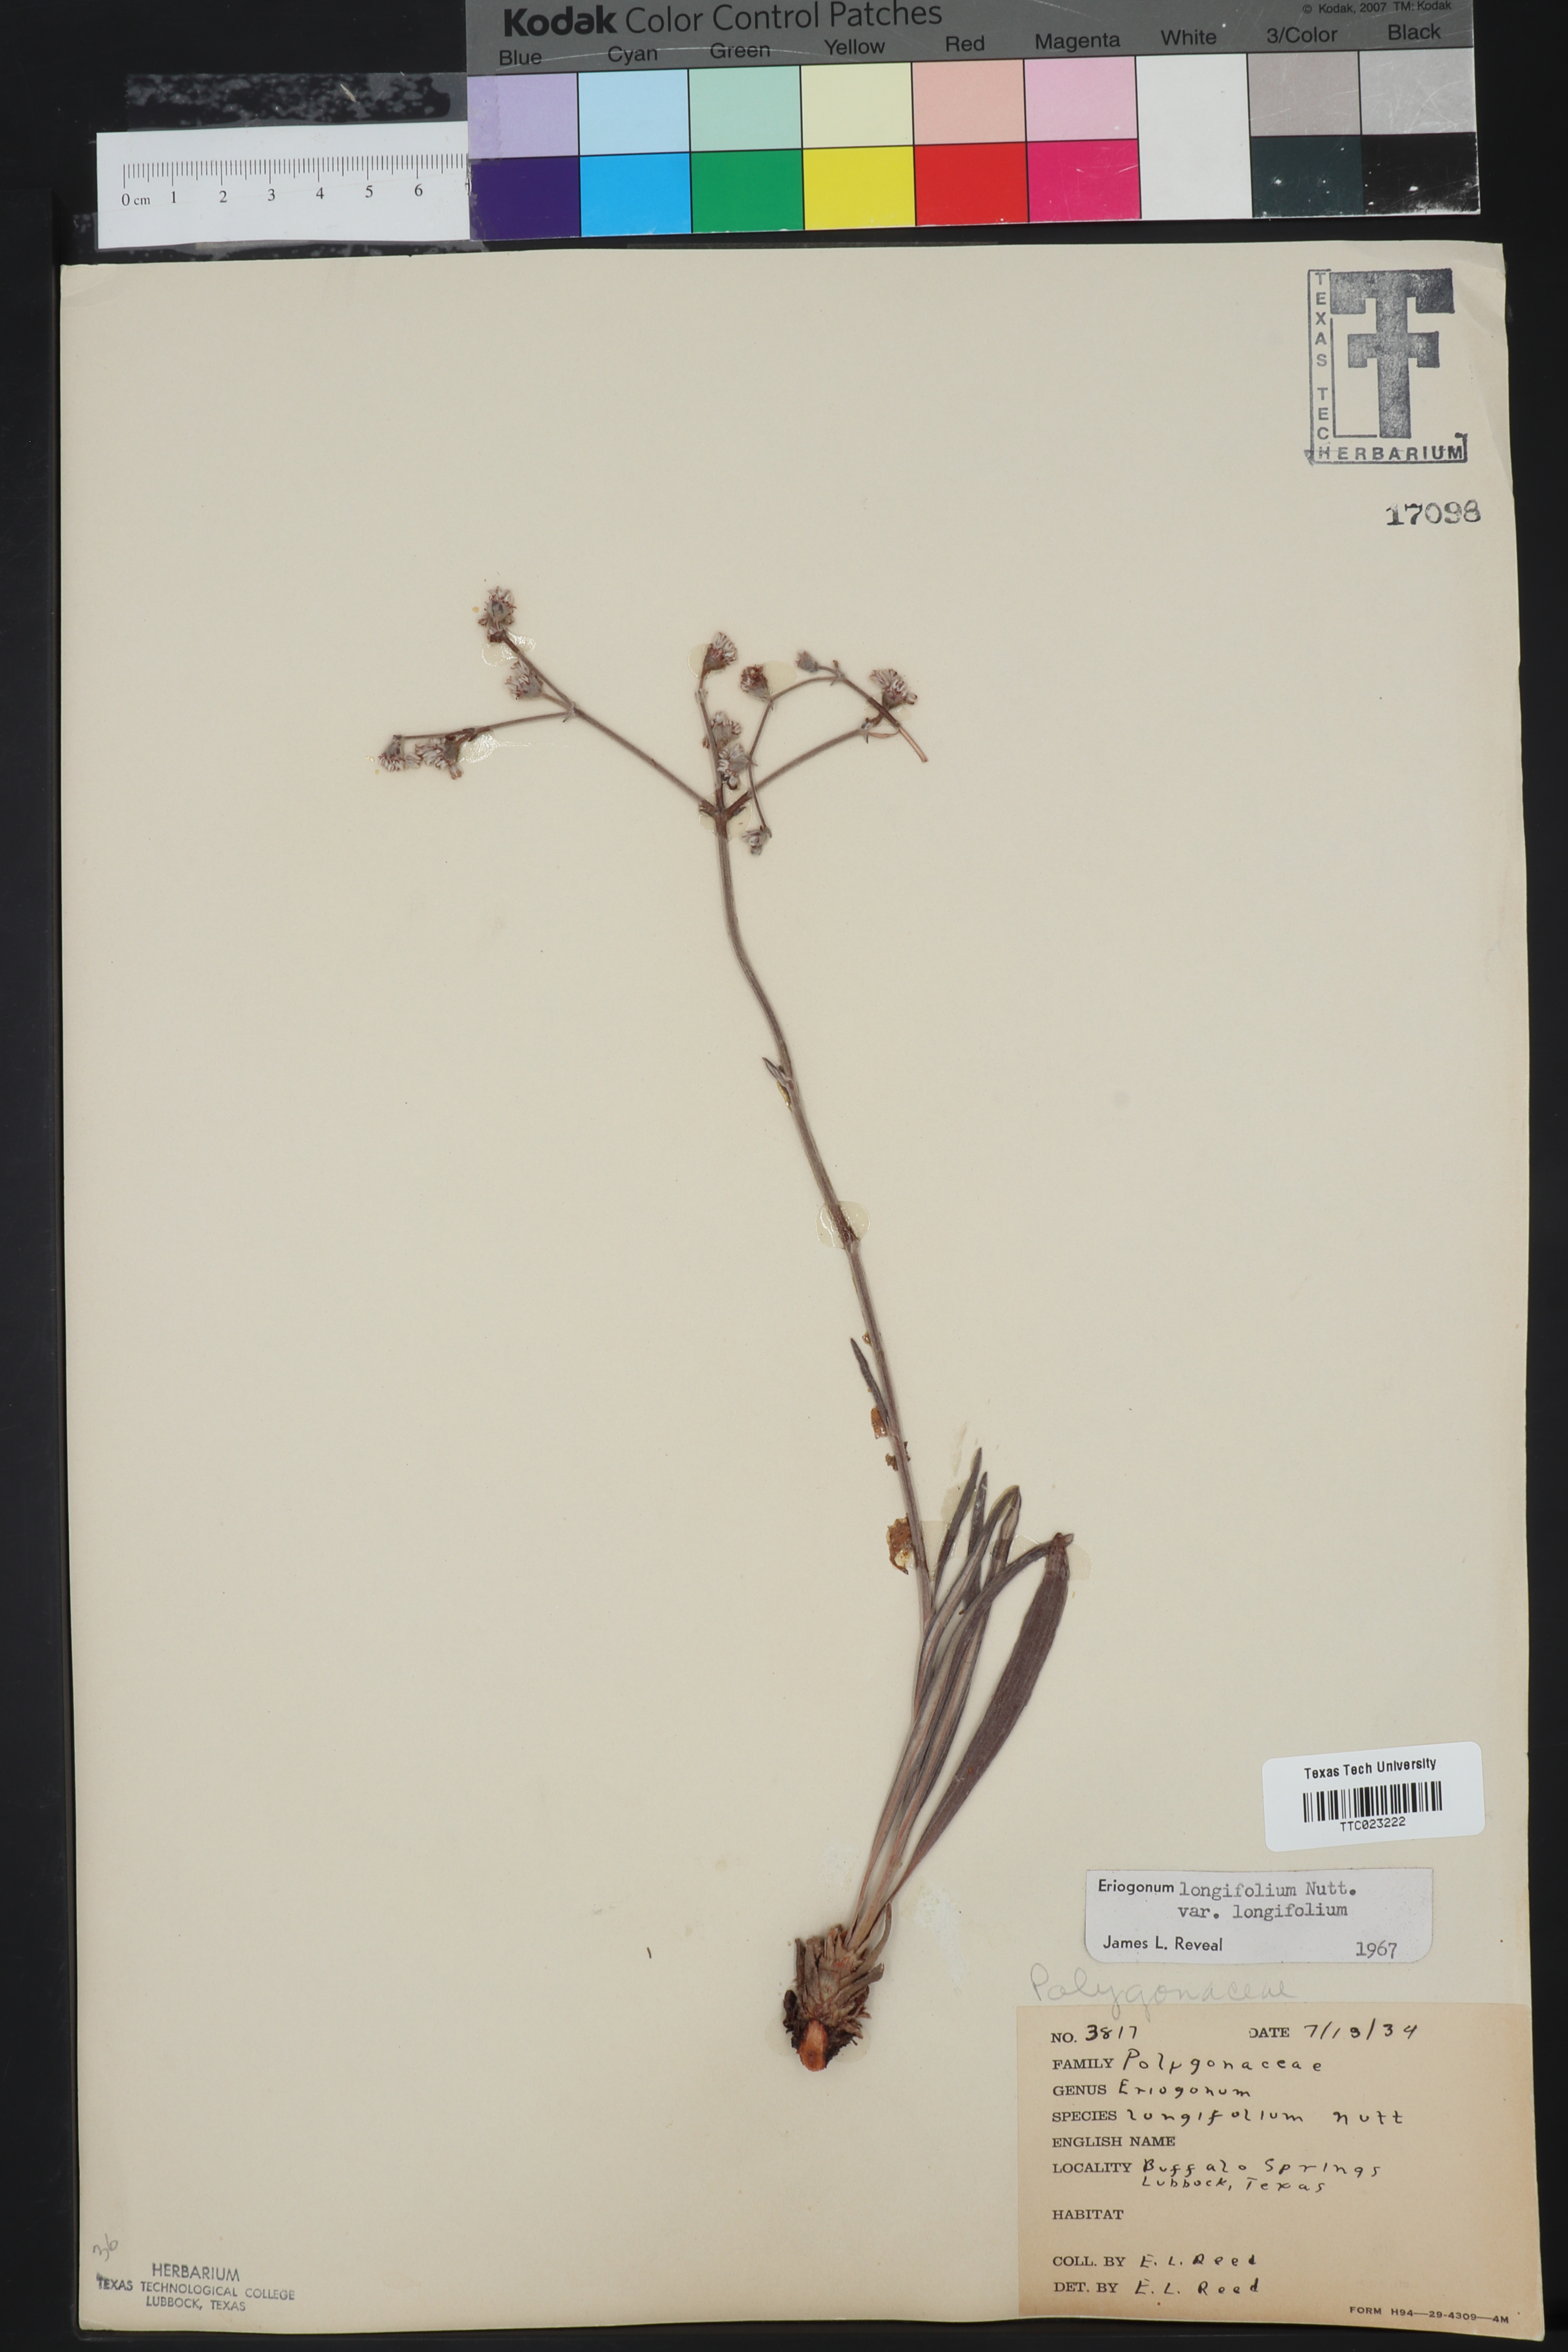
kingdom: Plantae
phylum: Tracheophyta
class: Magnoliopsida
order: Caryophyllales
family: Polygonaceae
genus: Eriogonum
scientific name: Eriogonum longifolium
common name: Longleaf wild buckwheat
